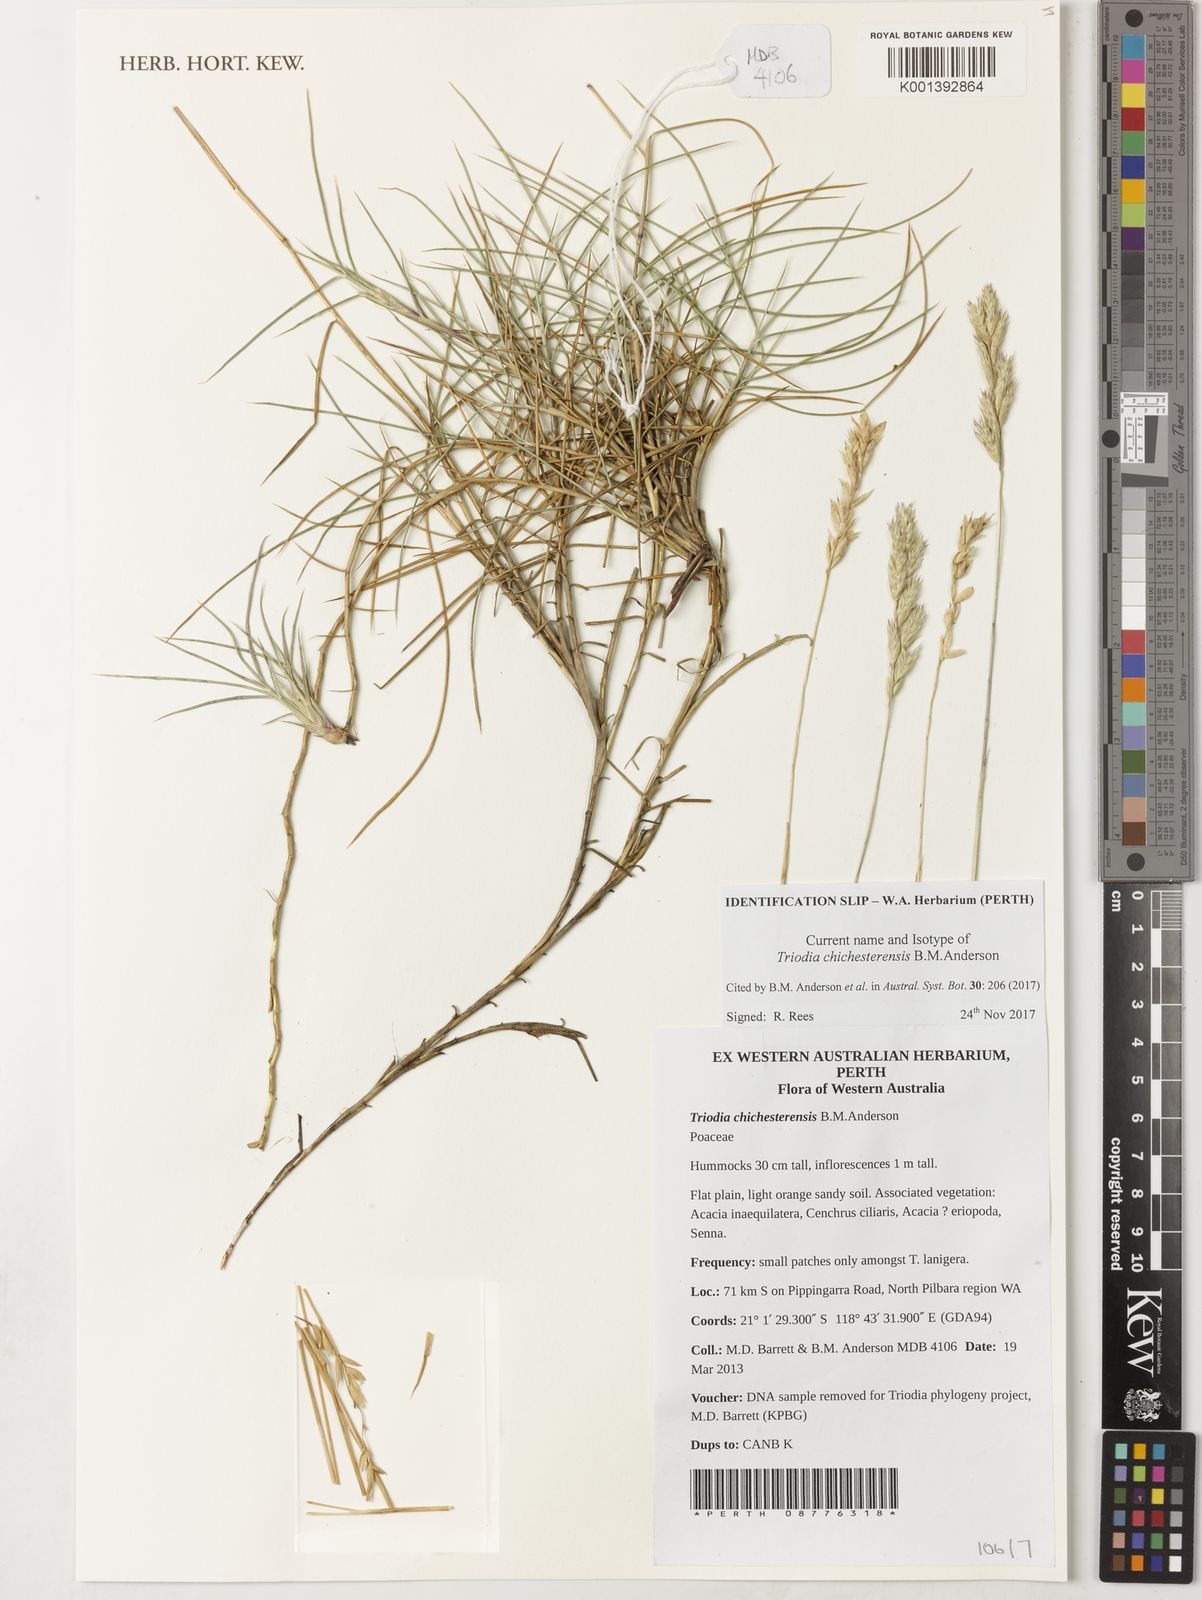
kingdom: Plantae
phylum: Tracheophyta
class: Liliopsida
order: Poales
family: Poaceae
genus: Triodia
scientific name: Triodia chichesterensis
